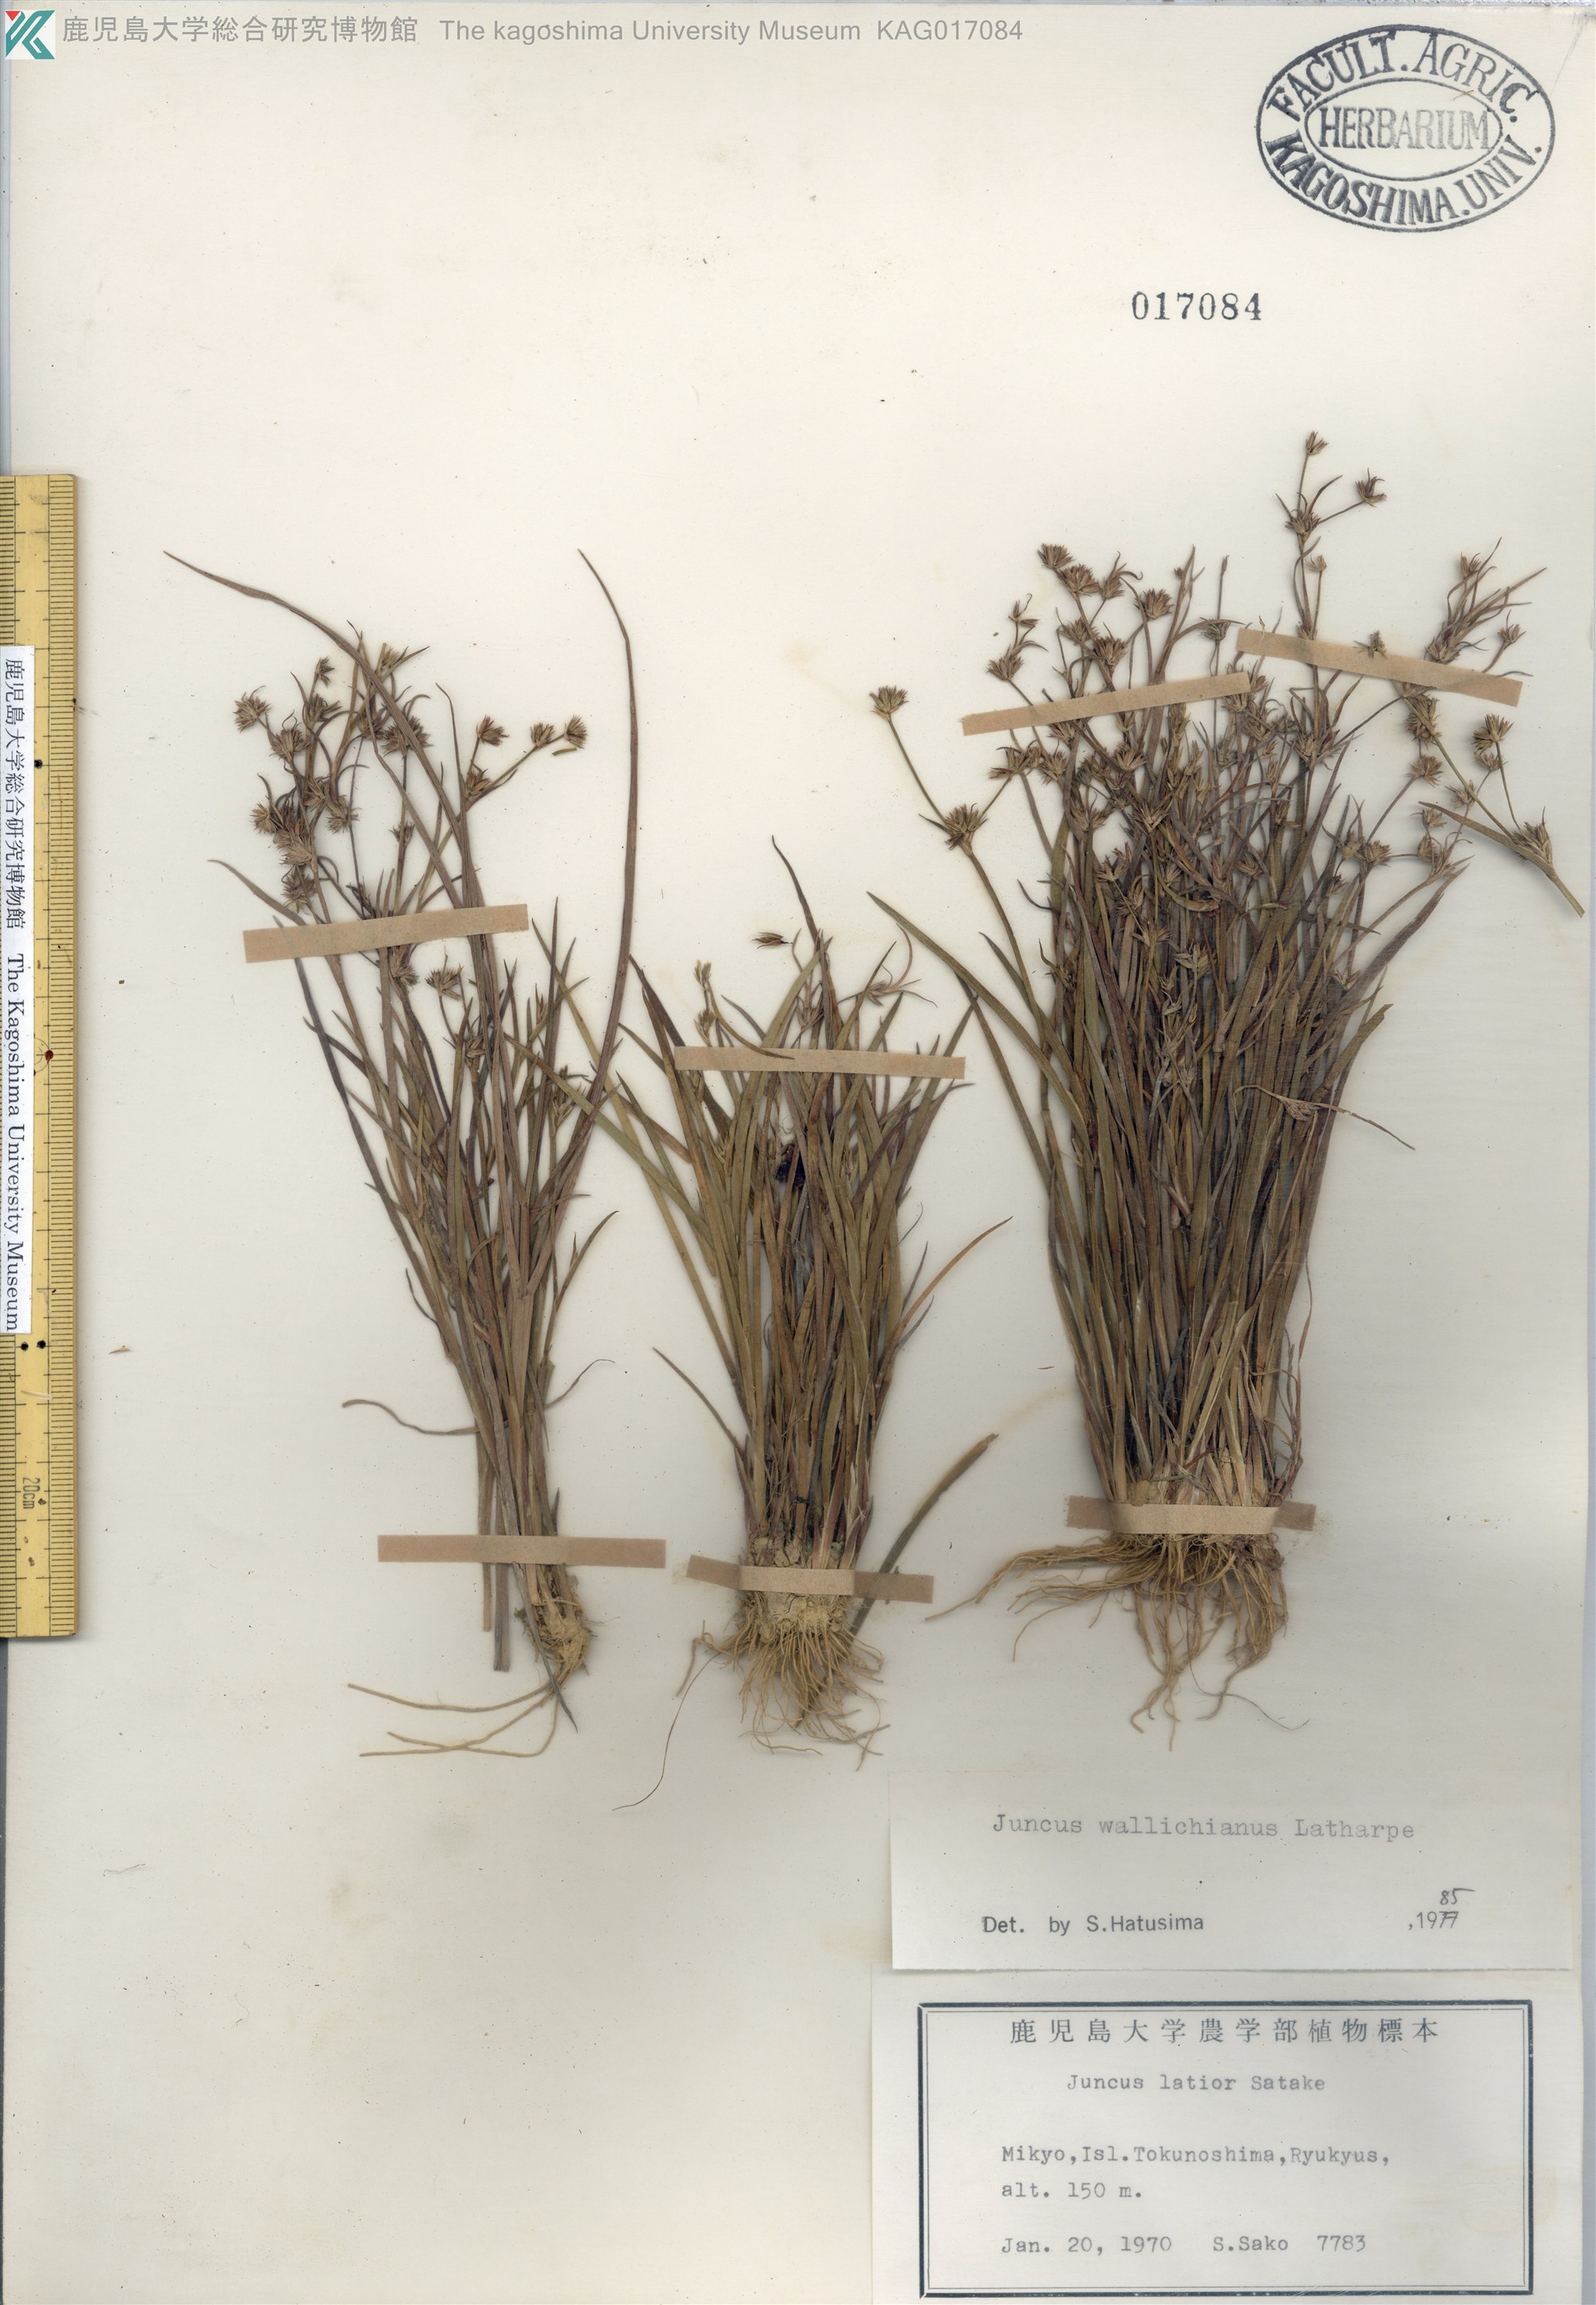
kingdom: Plantae
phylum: Tracheophyta
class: Liliopsida
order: Poales
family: Juncaceae
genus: Juncus
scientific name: Juncus prismatocarpus
